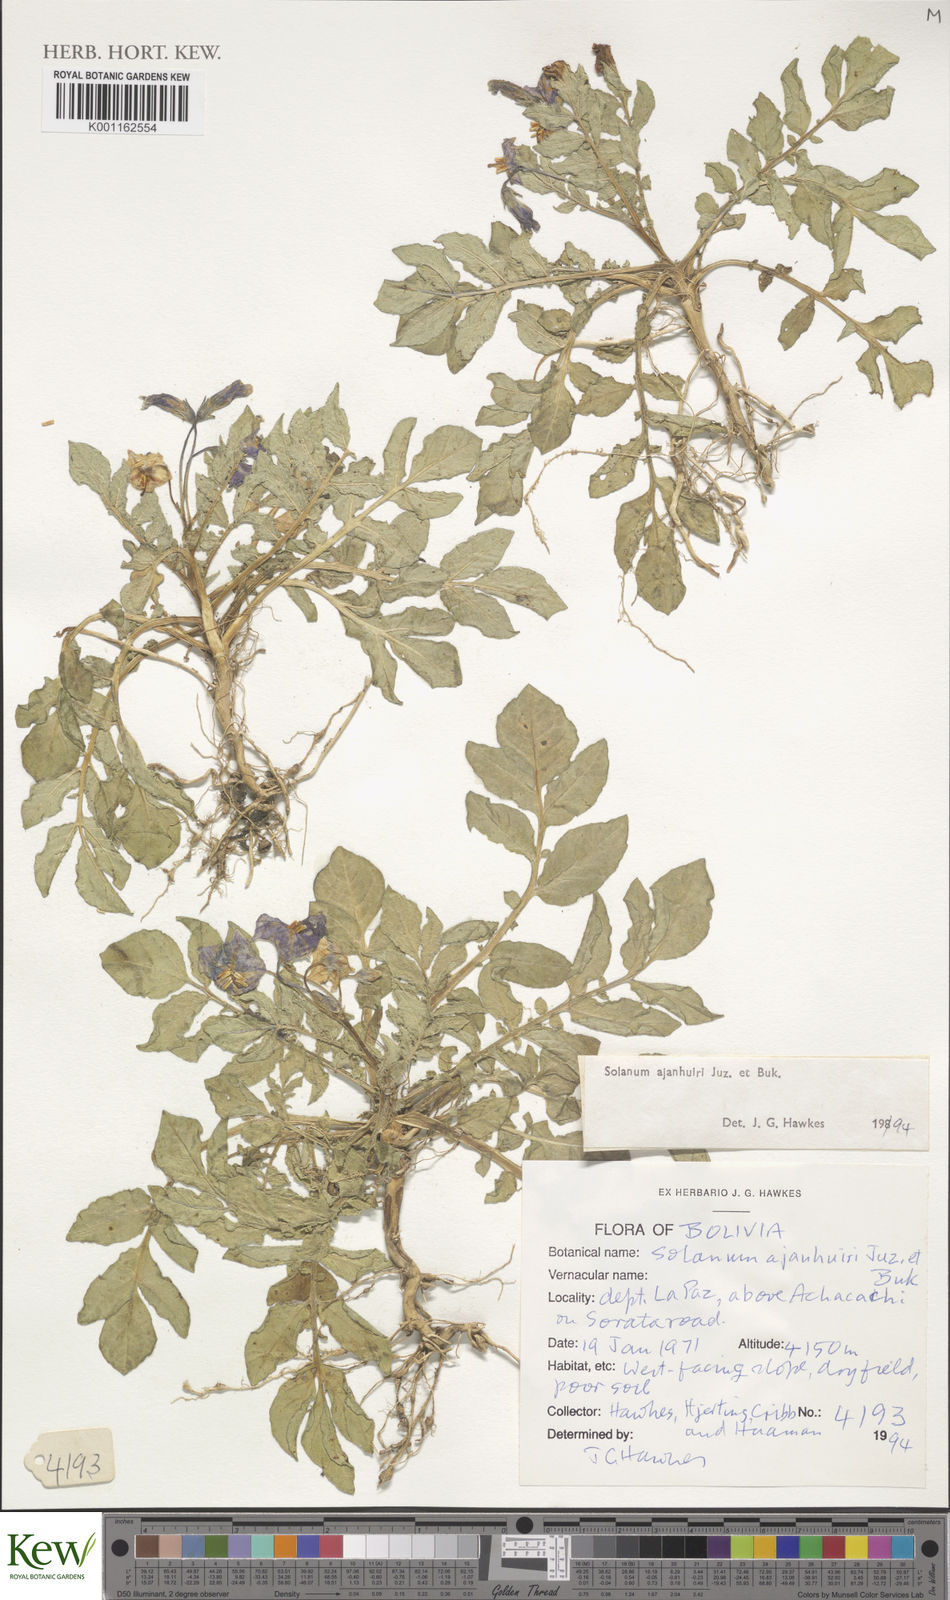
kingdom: Plantae
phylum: Tracheophyta
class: Magnoliopsida
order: Solanales
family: Solanaceae
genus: Solanum
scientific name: Solanum ajanhuiri
